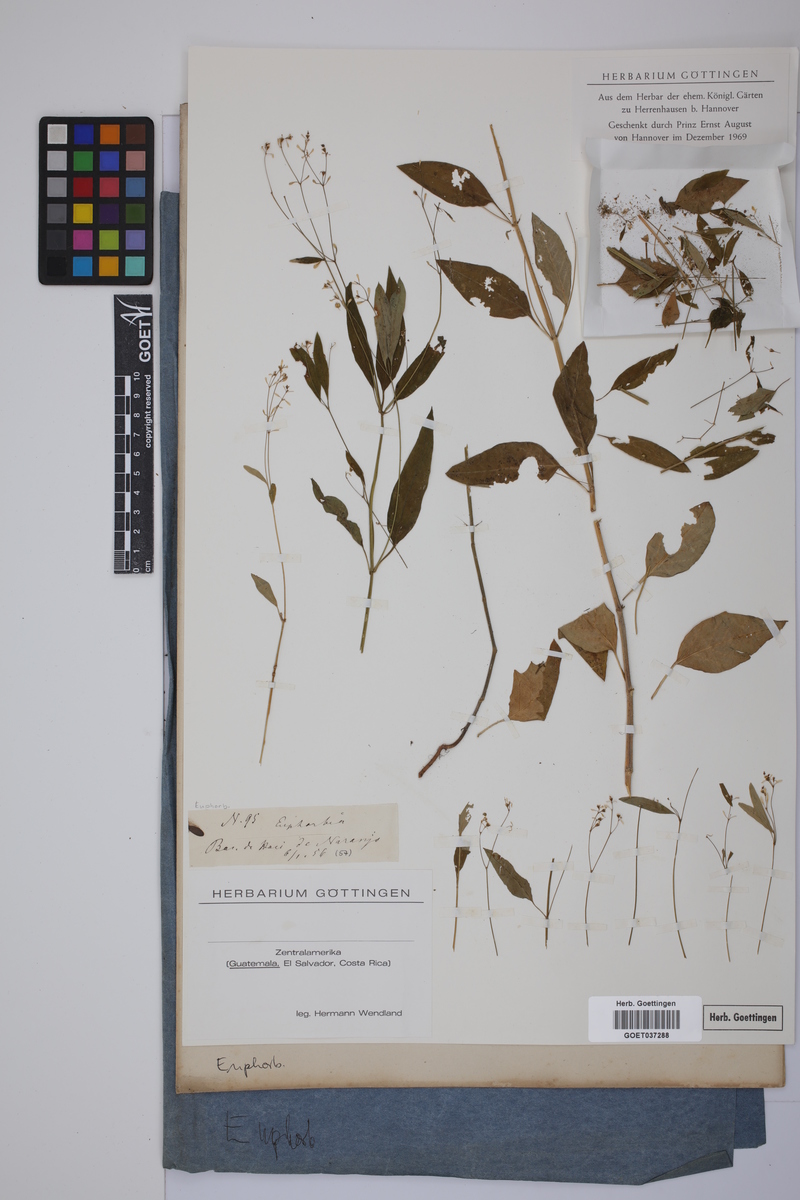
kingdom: Plantae
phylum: Tracheophyta
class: Magnoliopsida
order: Malpighiales
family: Euphorbiaceae
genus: Euphorbia
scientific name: Euphorbia
